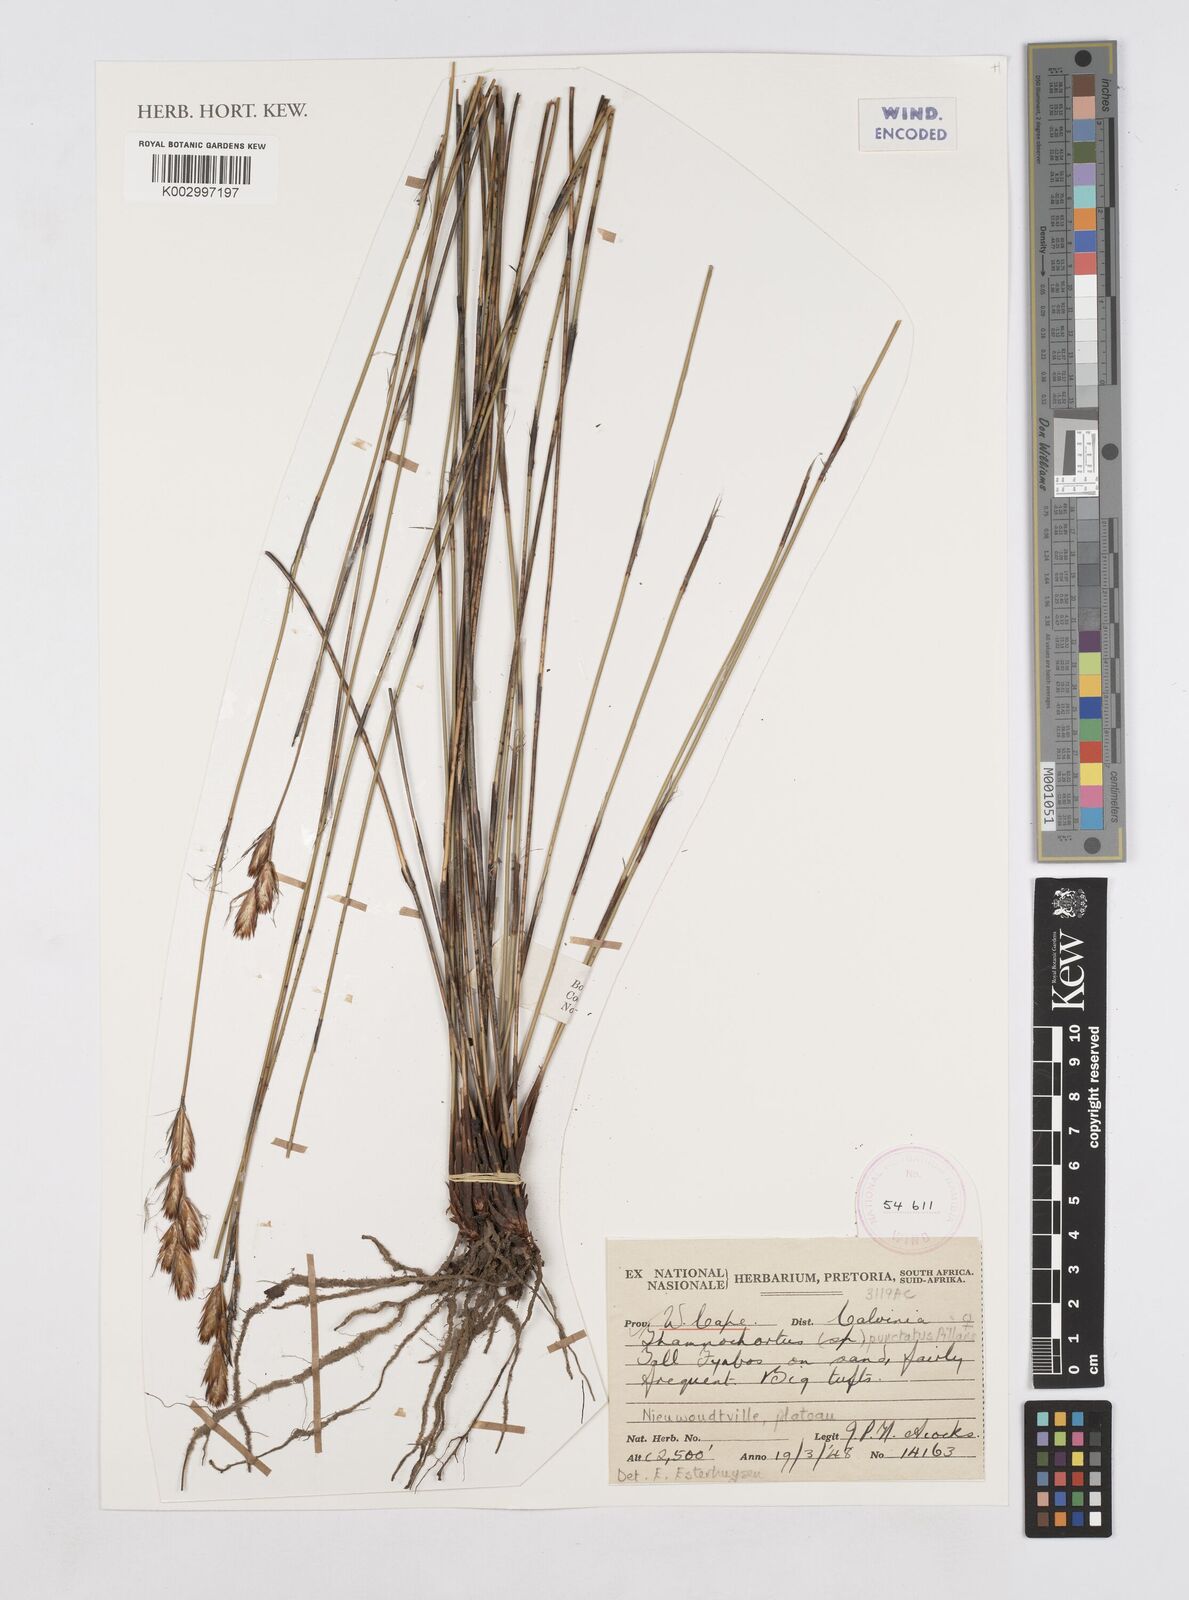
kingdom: Plantae
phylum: Tracheophyta
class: Liliopsida
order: Poales
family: Restionaceae
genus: Thamnochortus
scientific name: Thamnochortus punctatus
